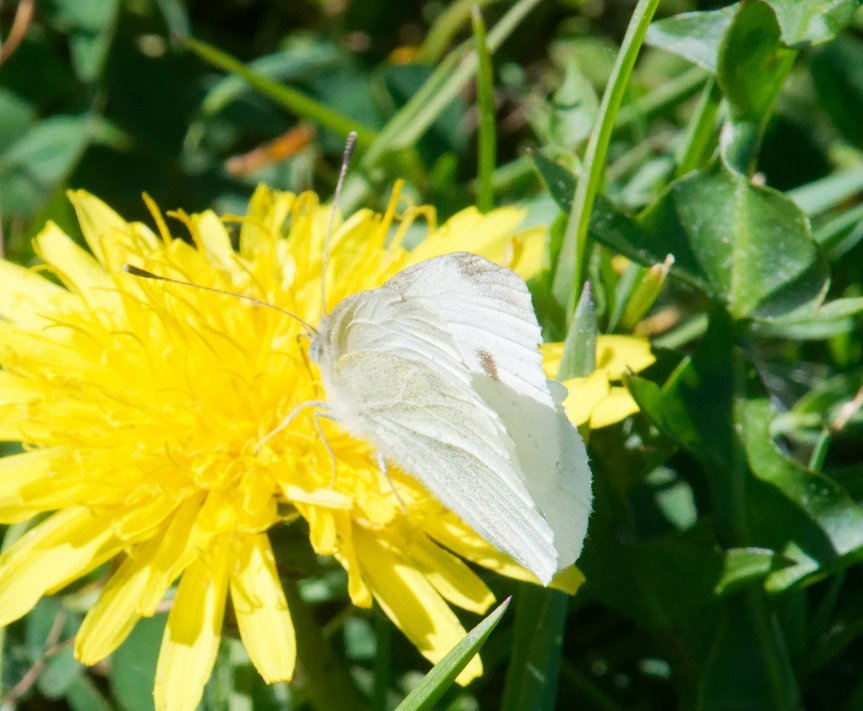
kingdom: Animalia
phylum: Arthropoda
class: Insecta
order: Lepidoptera
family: Pieridae
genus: Pieris
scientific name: Pieris rapae
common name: Cabbage White
